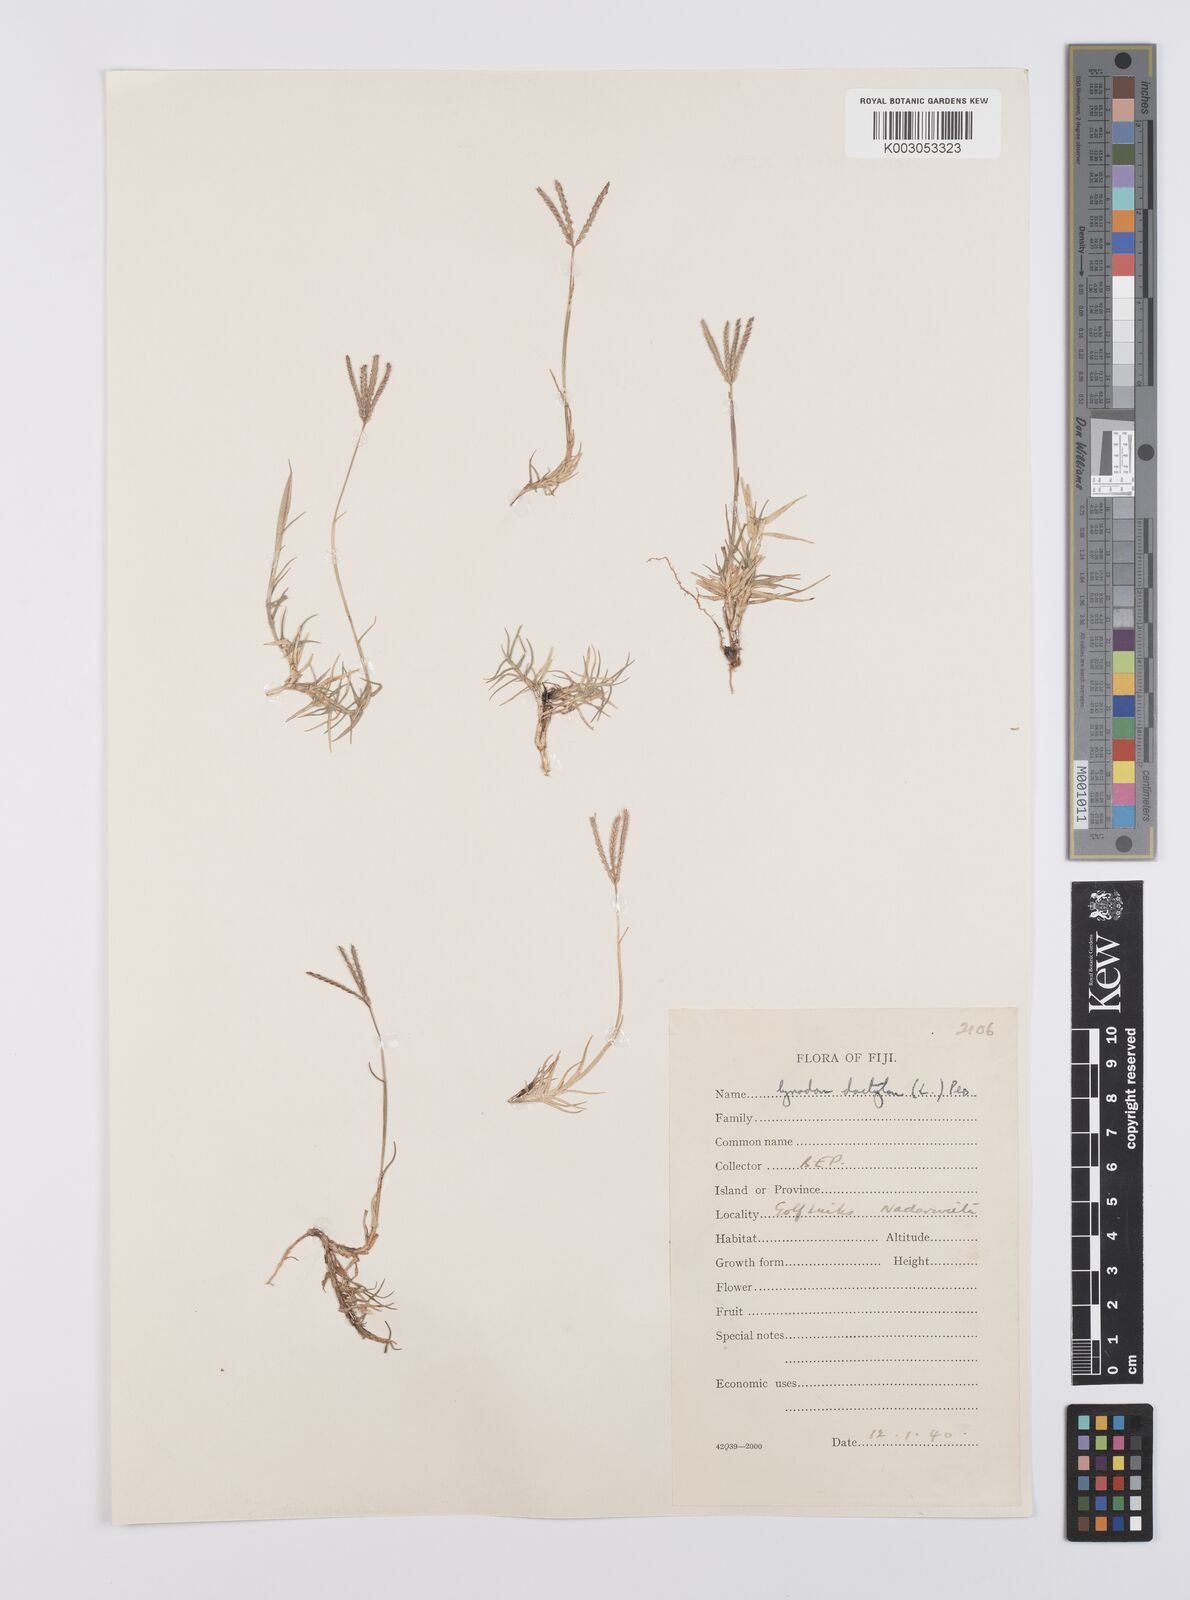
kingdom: Plantae
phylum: Tracheophyta
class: Liliopsida
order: Poales
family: Poaceae
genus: Cynodon
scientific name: Cynodon dactylon
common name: Bermuda grass
